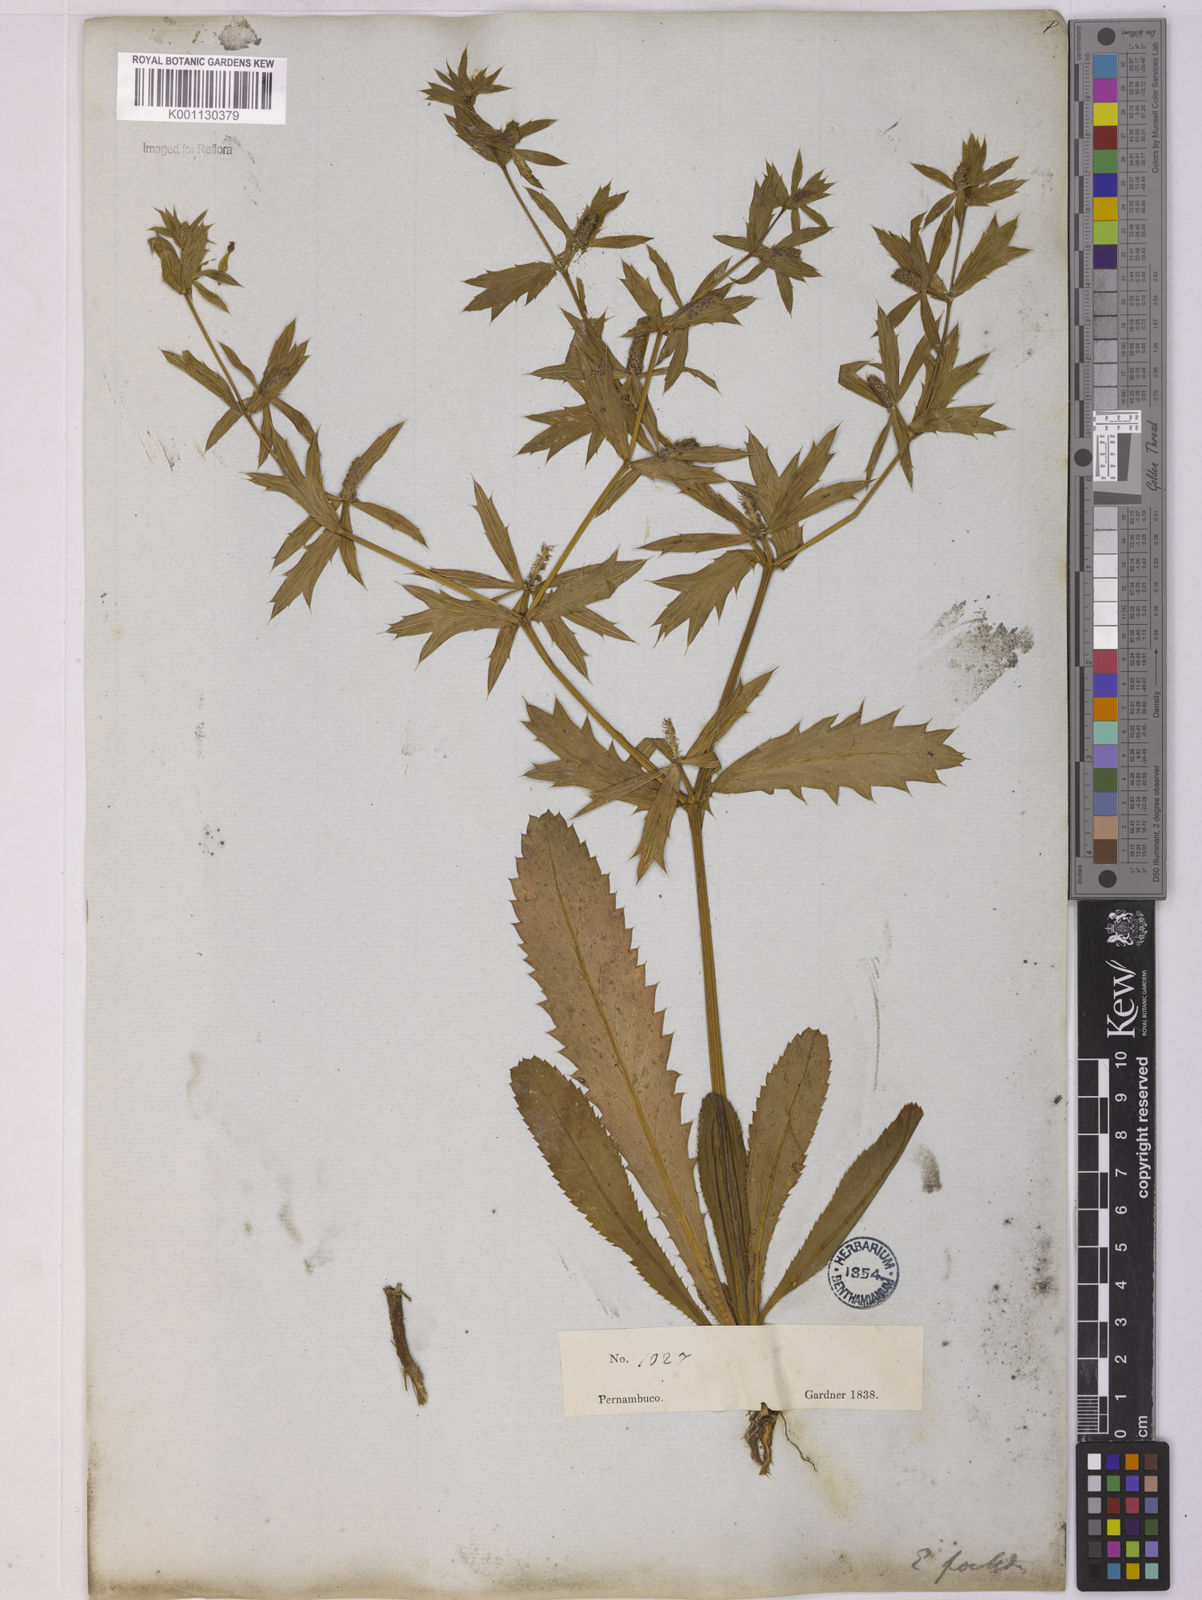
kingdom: Plantae
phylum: Tracheophyta
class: Magnoliopsida
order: Apiales
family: Apiaceae
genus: Eryngium
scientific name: Eryngium foetidum
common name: Fitweed
